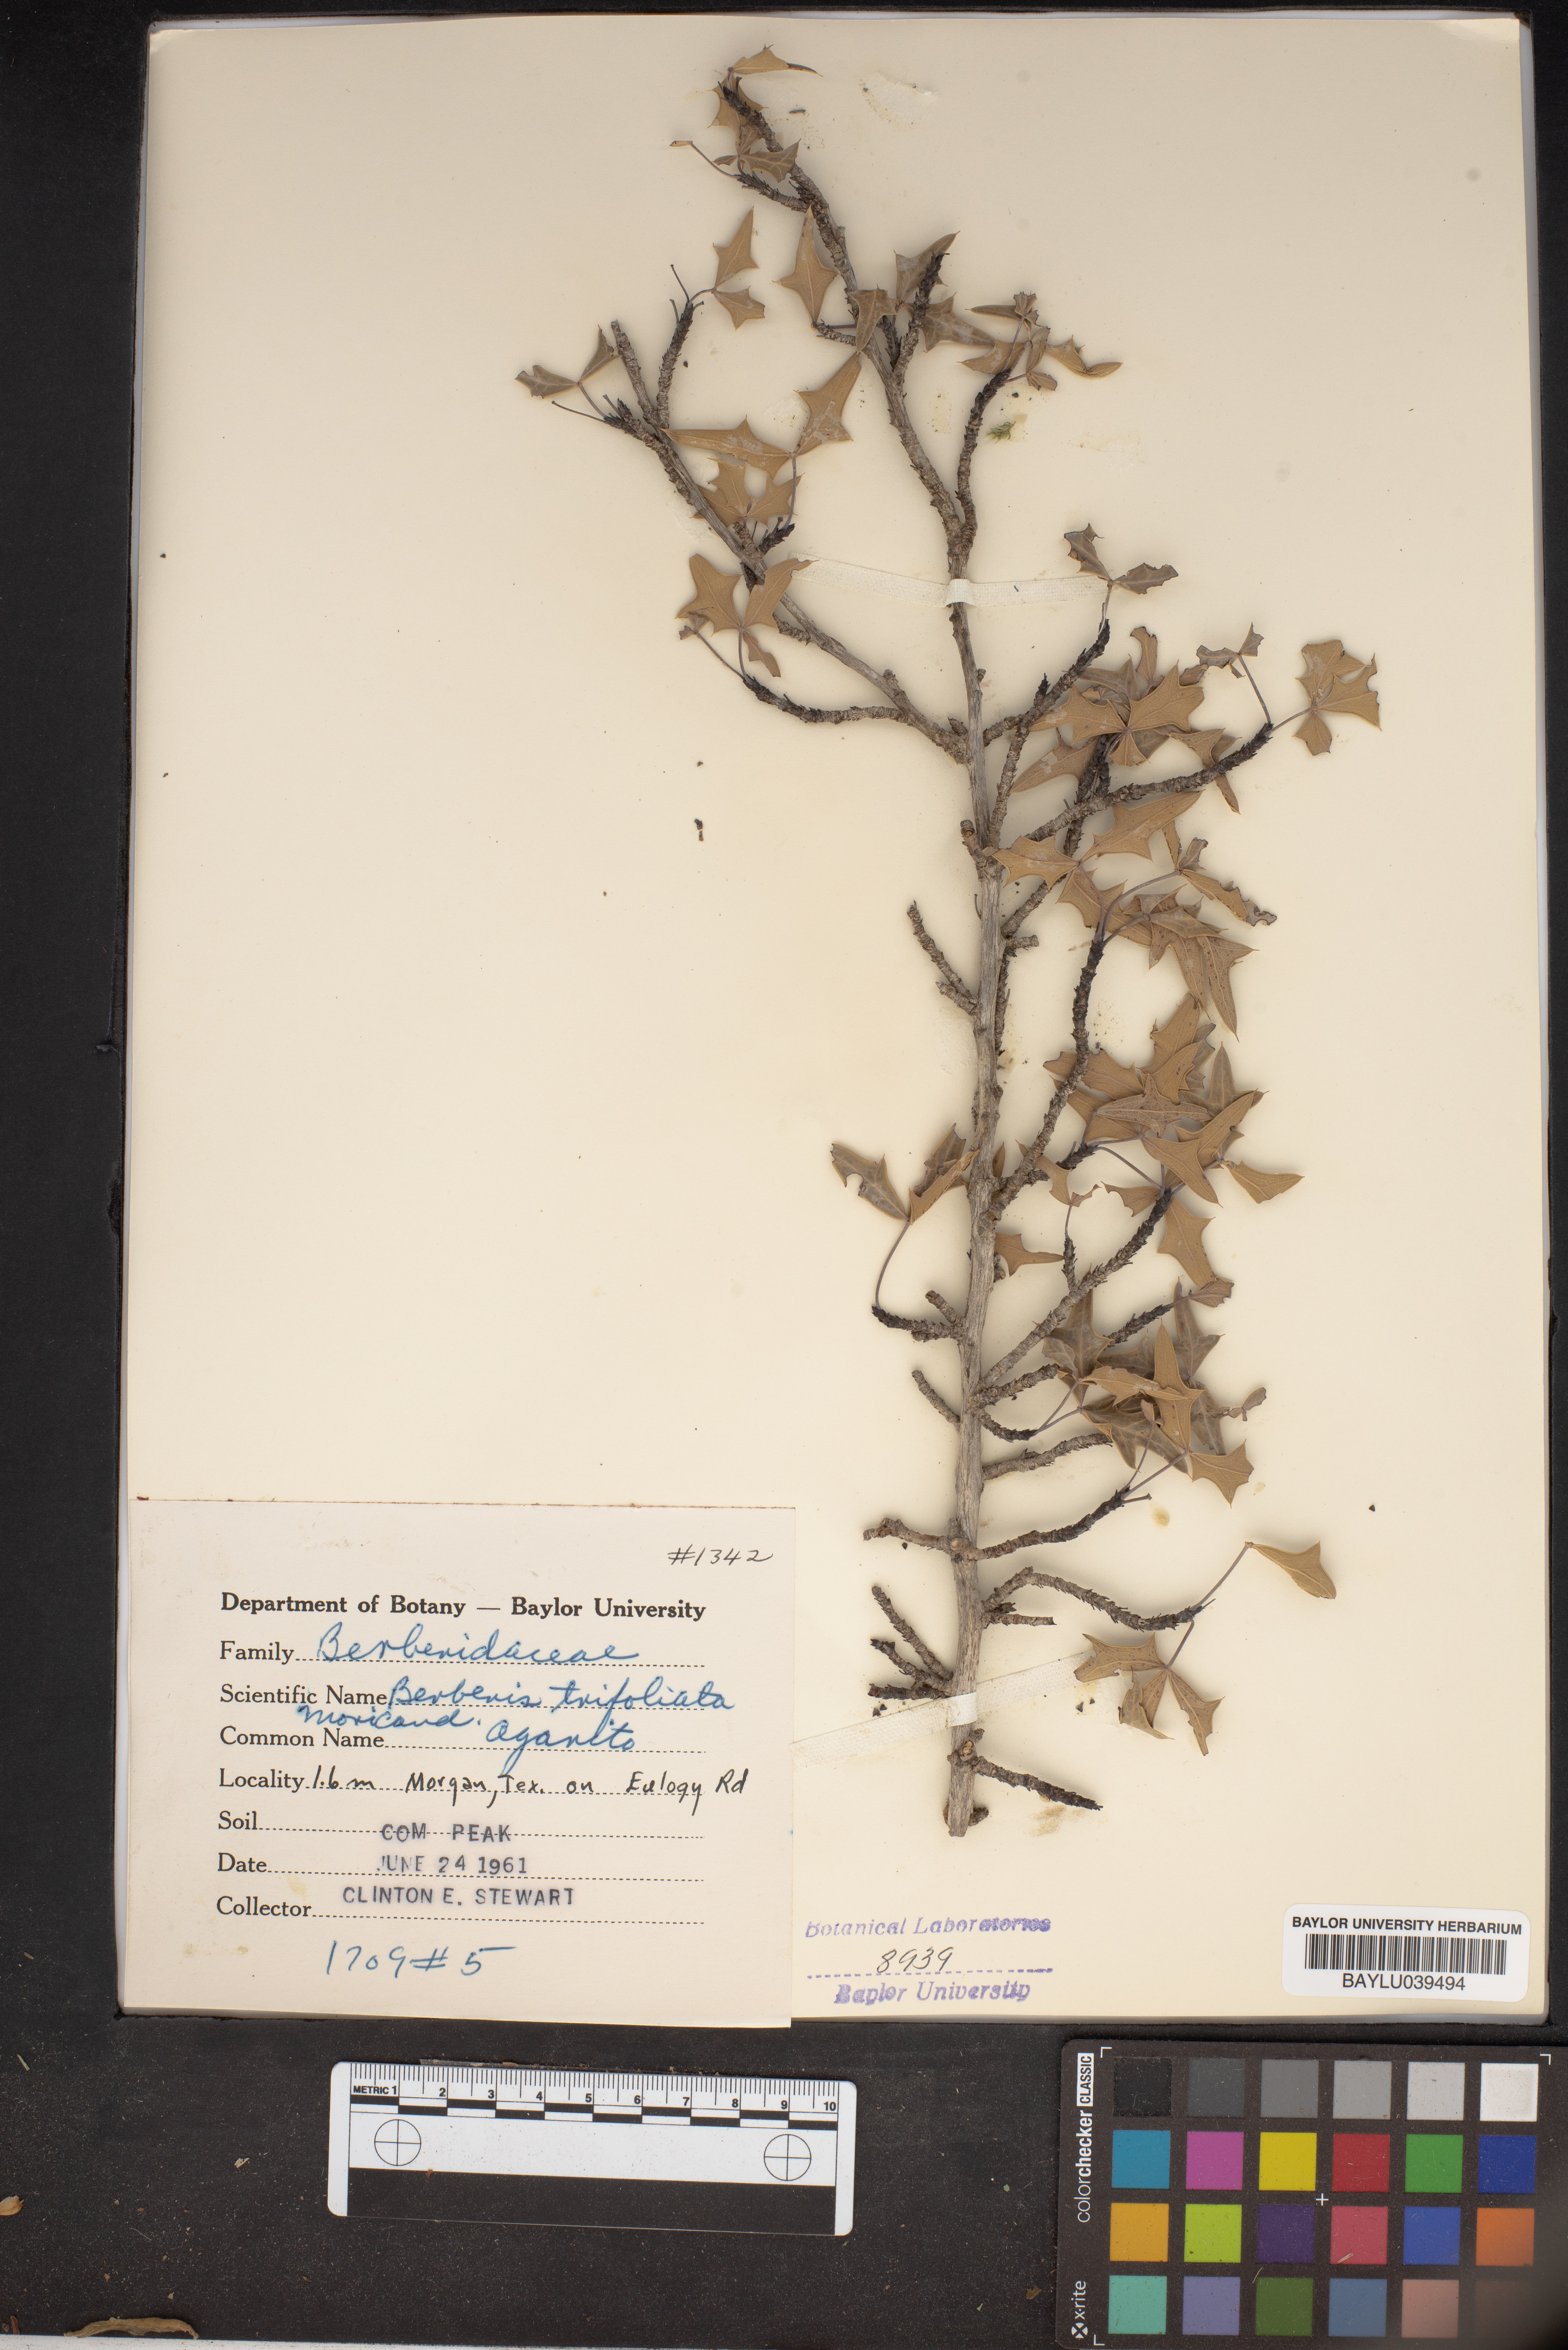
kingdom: Plantae
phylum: Tracheophyta
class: Magnoliopsida
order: Ranunculales
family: Berberidaceae
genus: Alloberberis
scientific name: Alloberberis fremontii
